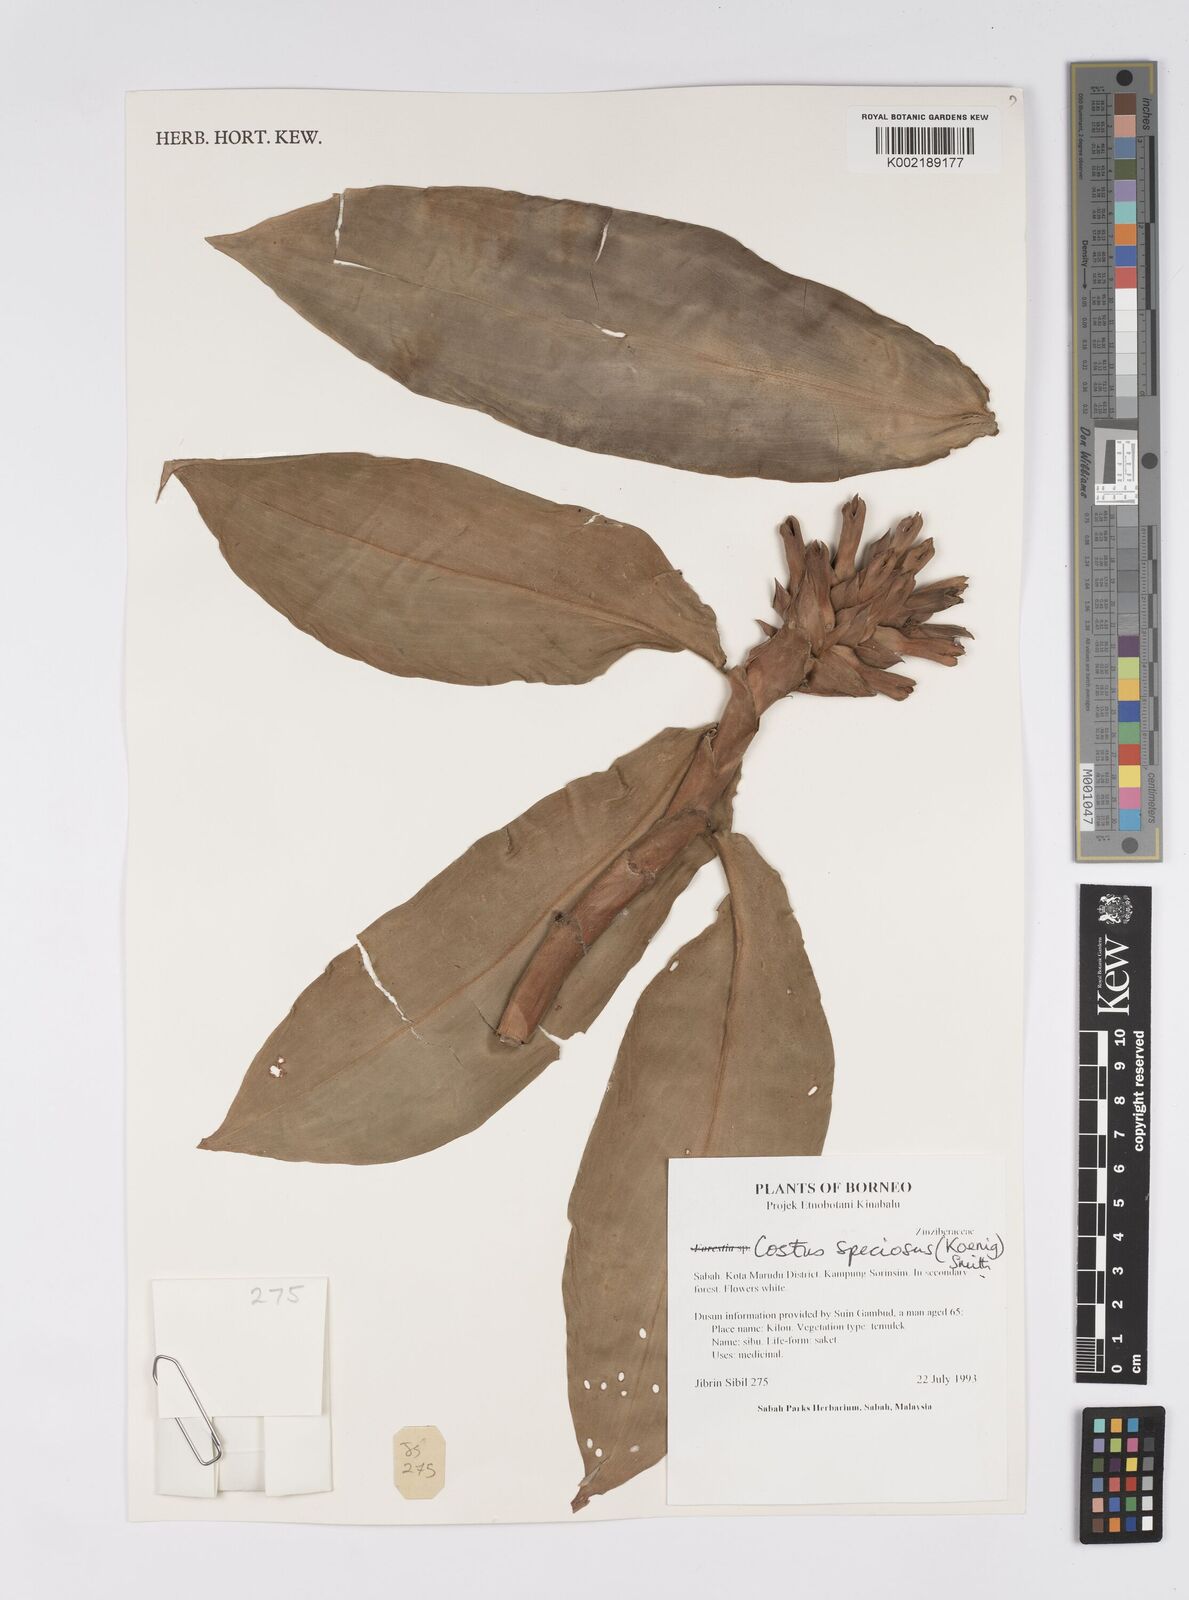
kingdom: Plantae
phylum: Tracheophyta
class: Liliopsida
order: Zingiberales
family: Costaceae
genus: Hellenia
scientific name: Hellenia speciosa
